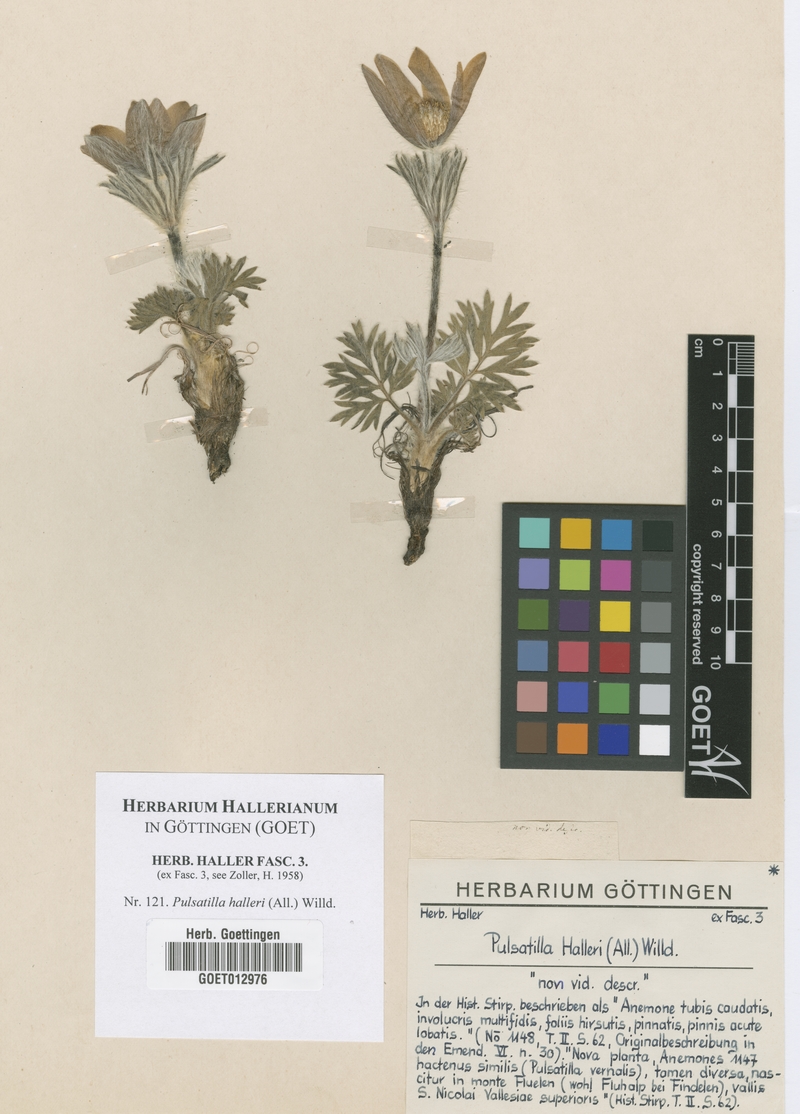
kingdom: Plantae
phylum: Tracheophyta
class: Magnoliopsida
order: Ranunculales
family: Ranunculaceae
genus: Pulsatilla
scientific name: Pulsatilla halleri
